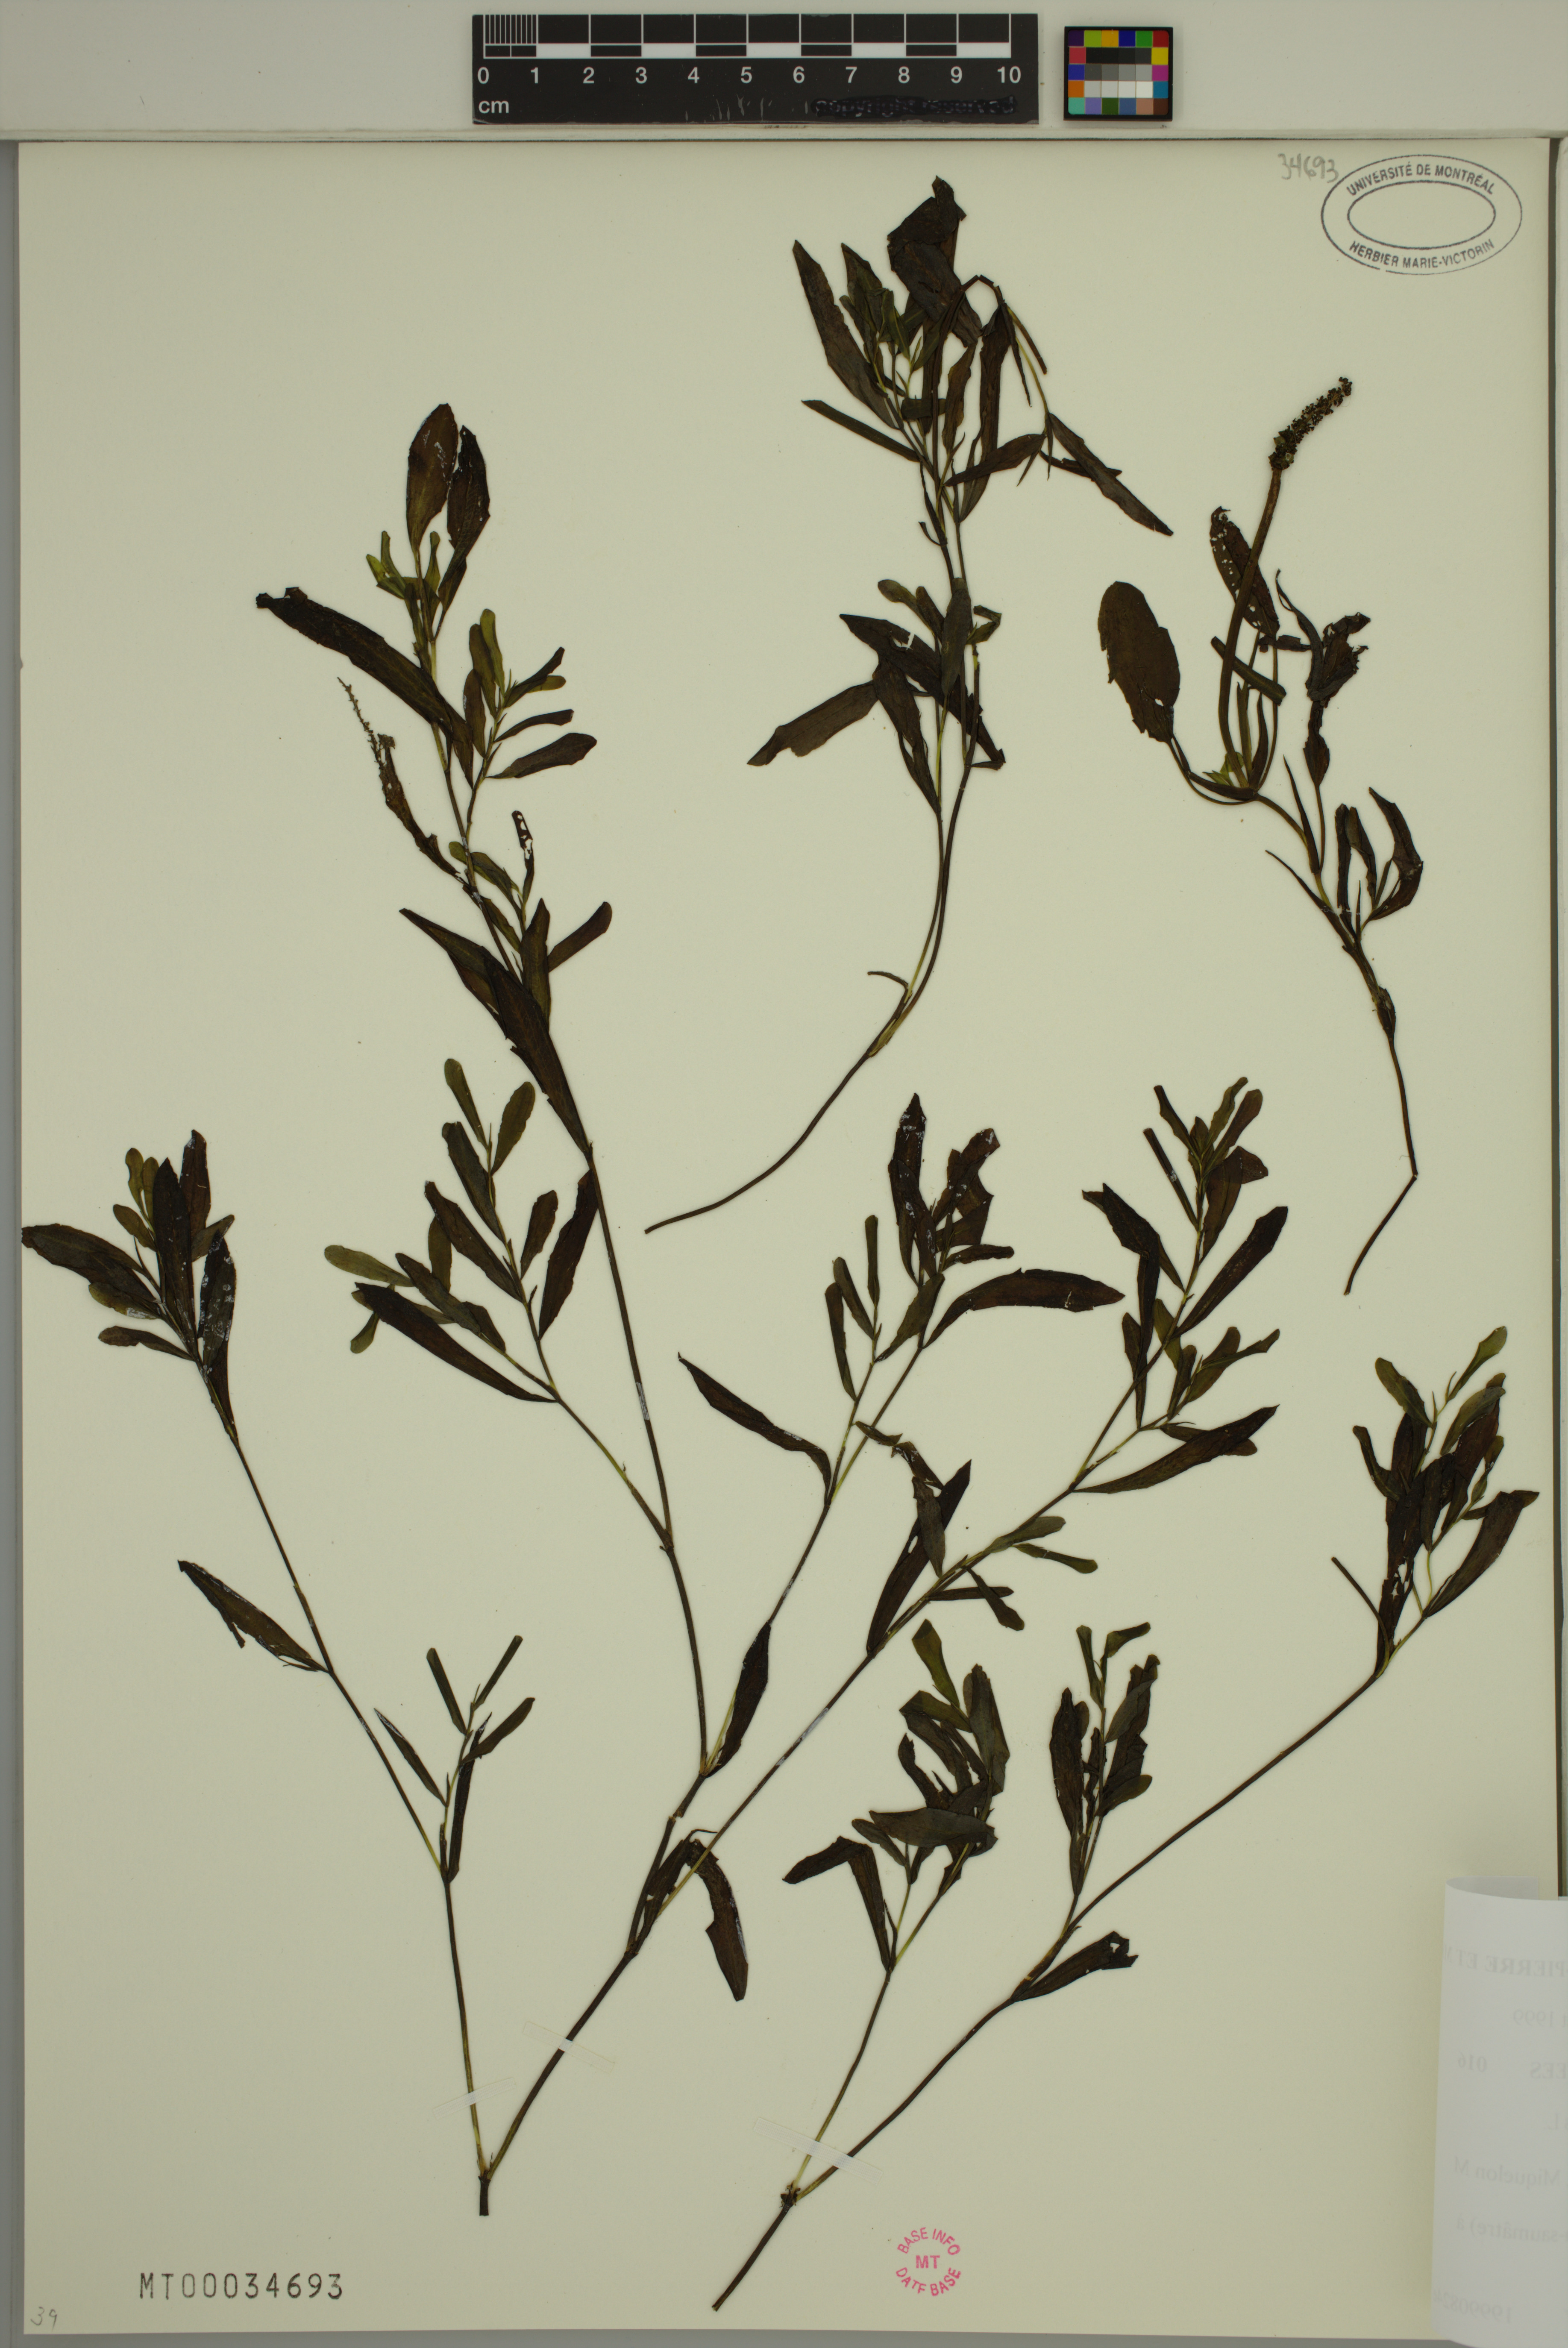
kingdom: Plantae
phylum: Tracheophyta
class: Liliopsida
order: Alismatales
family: Potamogetonaceae
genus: Potamogeton
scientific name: Potamogeton gramineus
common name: Various-leaved pondweed
